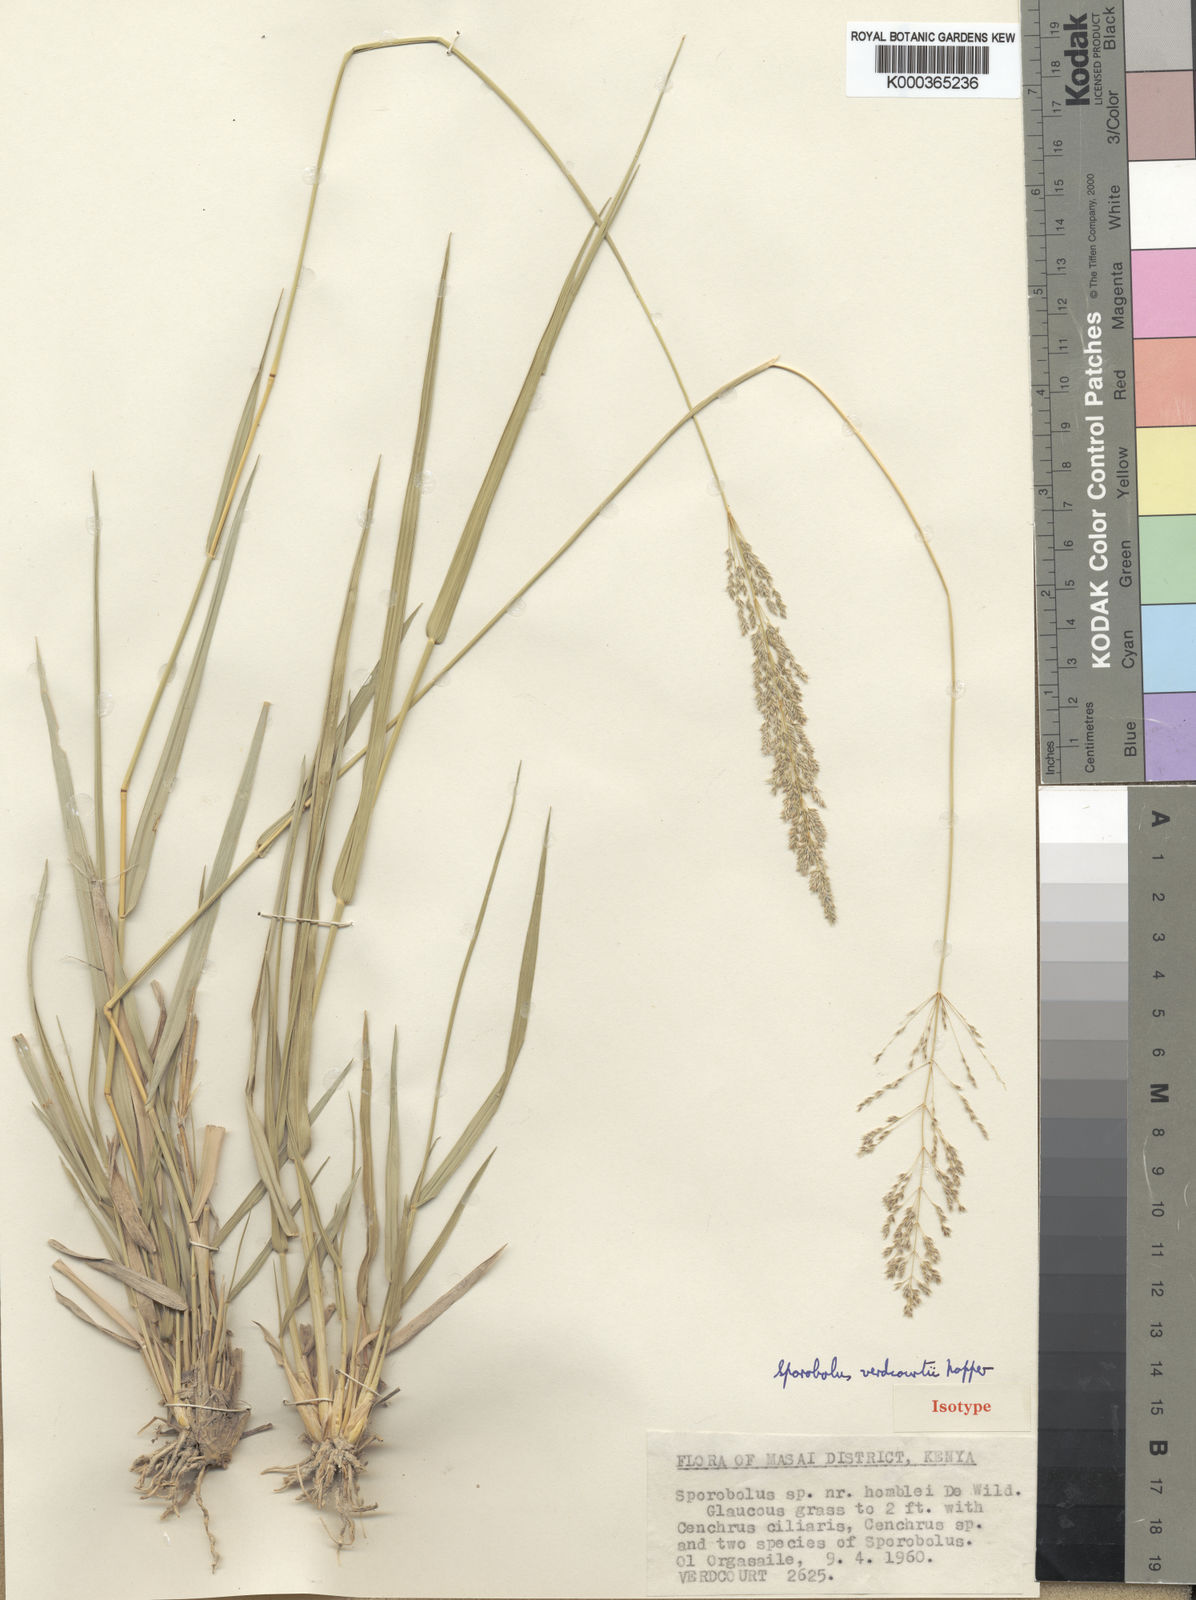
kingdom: Plantae
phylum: Tracheophyta
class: Liliopsida
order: Poales
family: Poaceae
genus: Sporobolus
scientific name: Sporobolus ioclados
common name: Pan dropseed
